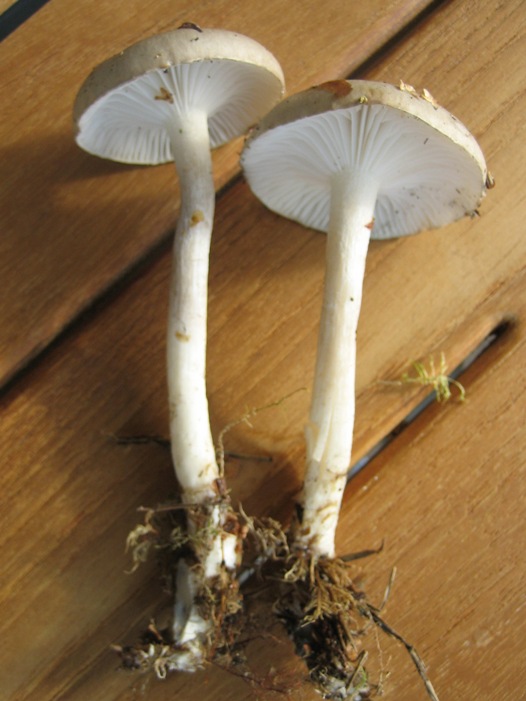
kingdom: Fungi
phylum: Basidiomycota
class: Agaricomycetes
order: Agaricales
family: Hygrophoraceae
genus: Hygrophorus
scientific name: Hygrophorus agathosmus
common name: vellugtende sneglehat
